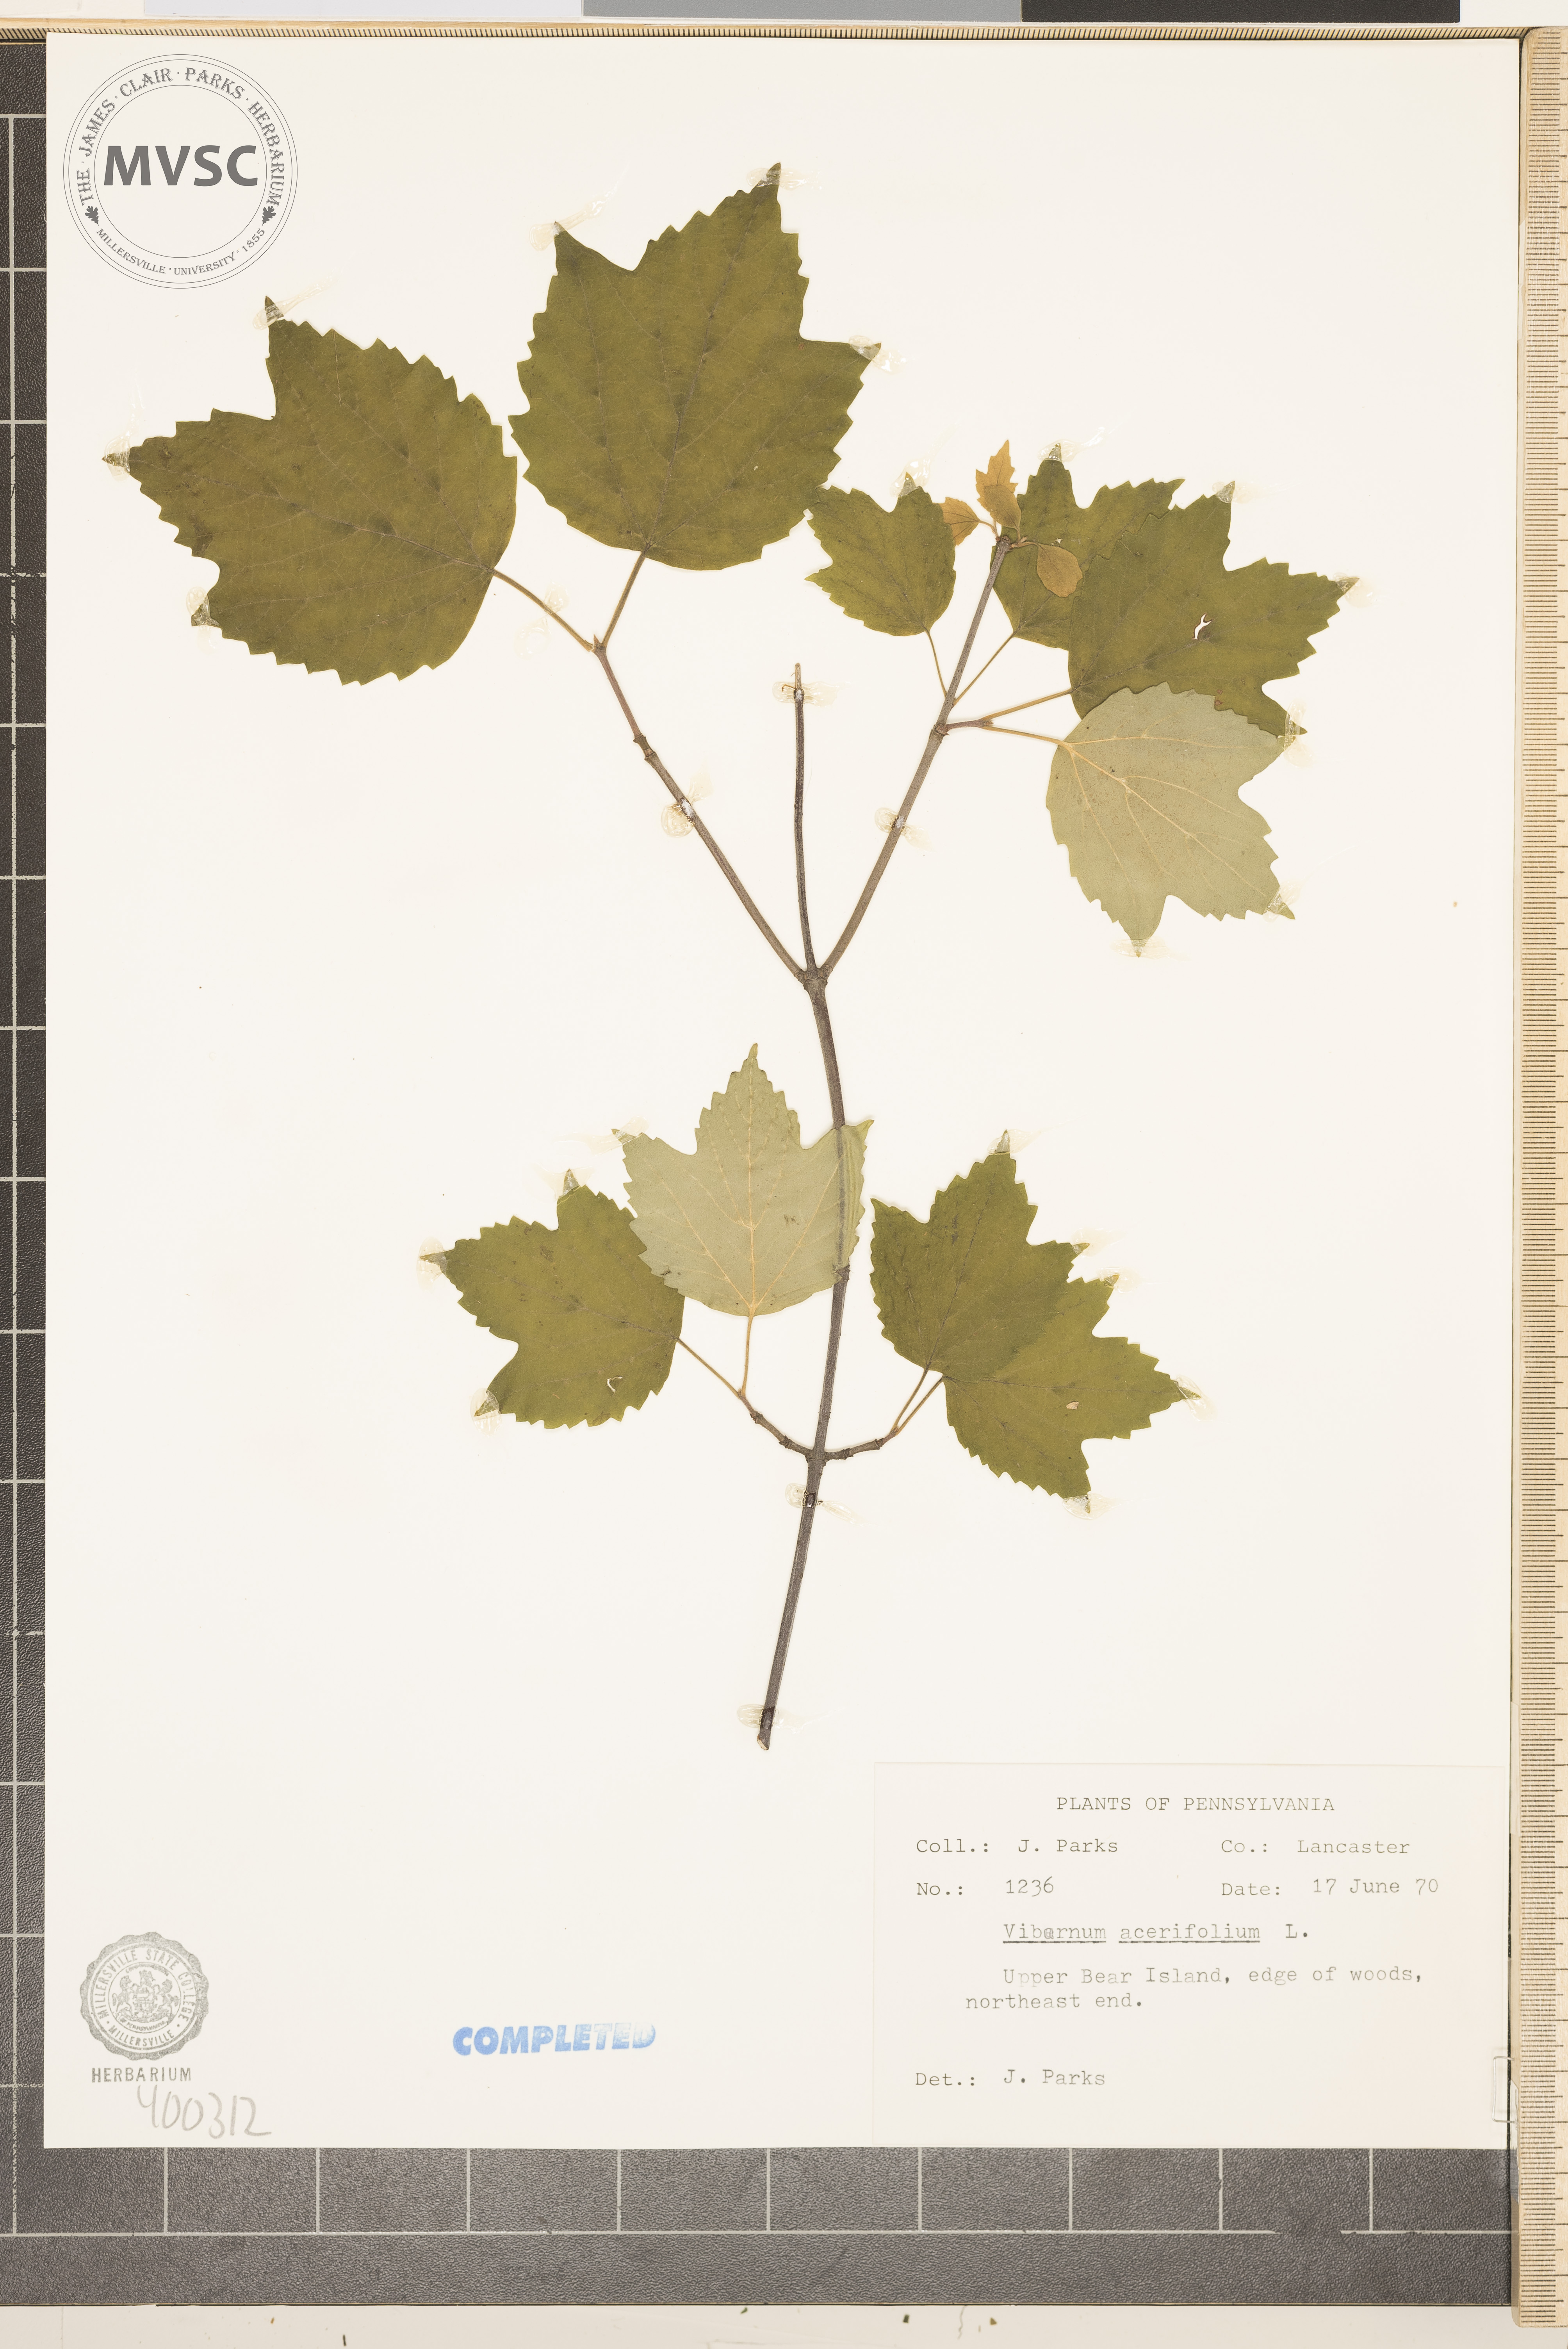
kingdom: Plantae
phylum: Tracheophyta
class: Magnoliopsida
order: Dipsacales
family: Viburnaceae
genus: Viburnum
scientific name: Viburnum acerifolium
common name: mapleleaf viburnum
